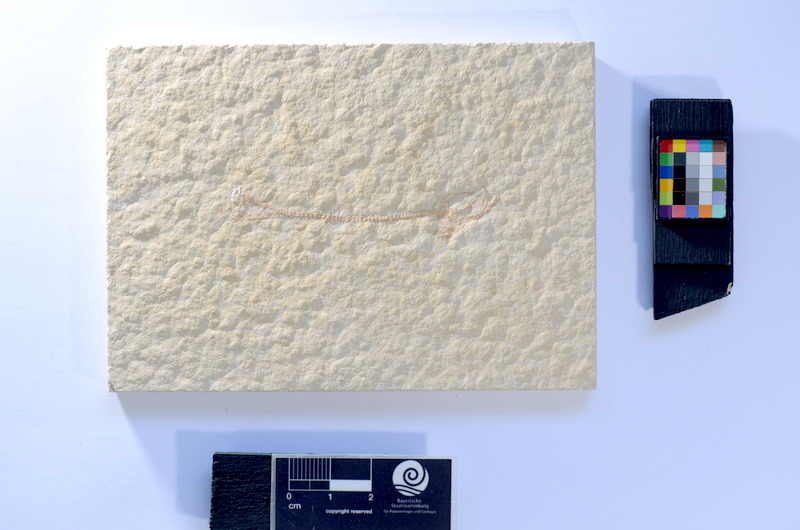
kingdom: Animalia
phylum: Chordata
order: Salmoniformes
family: Orthogonikleithridae
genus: Leptolepides
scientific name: Leptolepides sprattiformis
